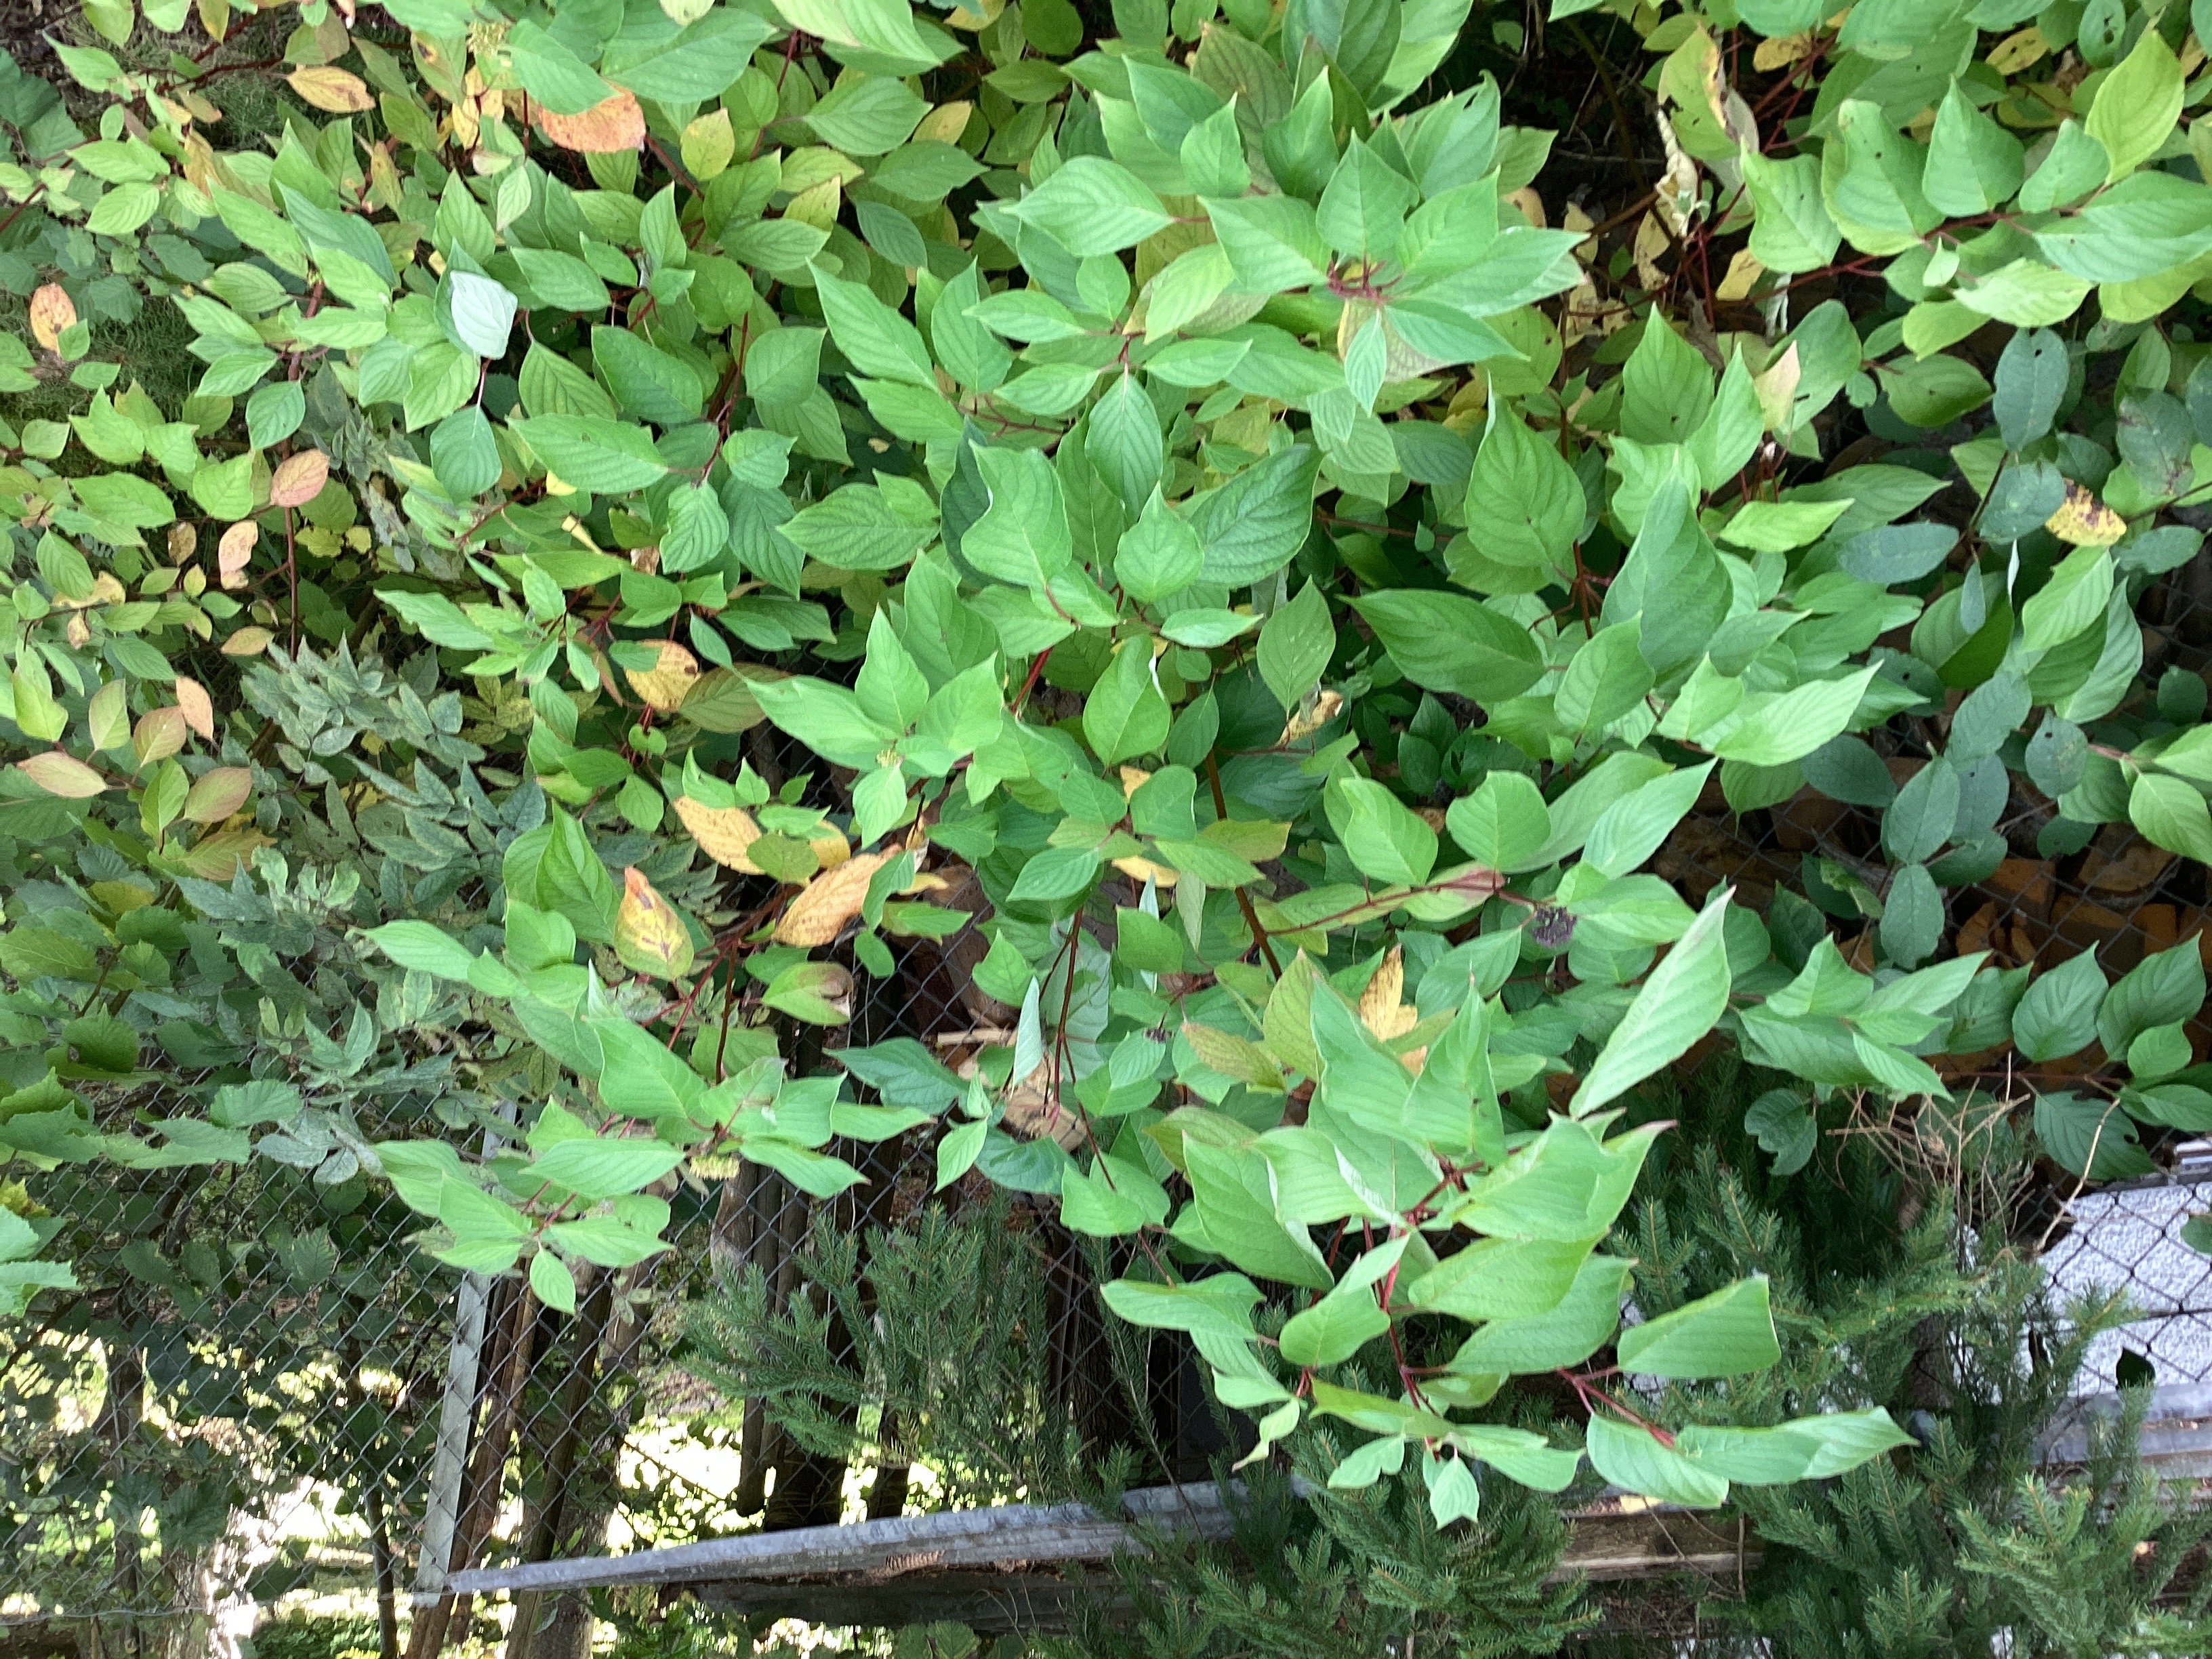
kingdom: Plantae
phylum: Tracheophyta
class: Magnoliopsida
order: Cornales
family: Cornaceae
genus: Cornus
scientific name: Cornus sericea
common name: alaskakornell
